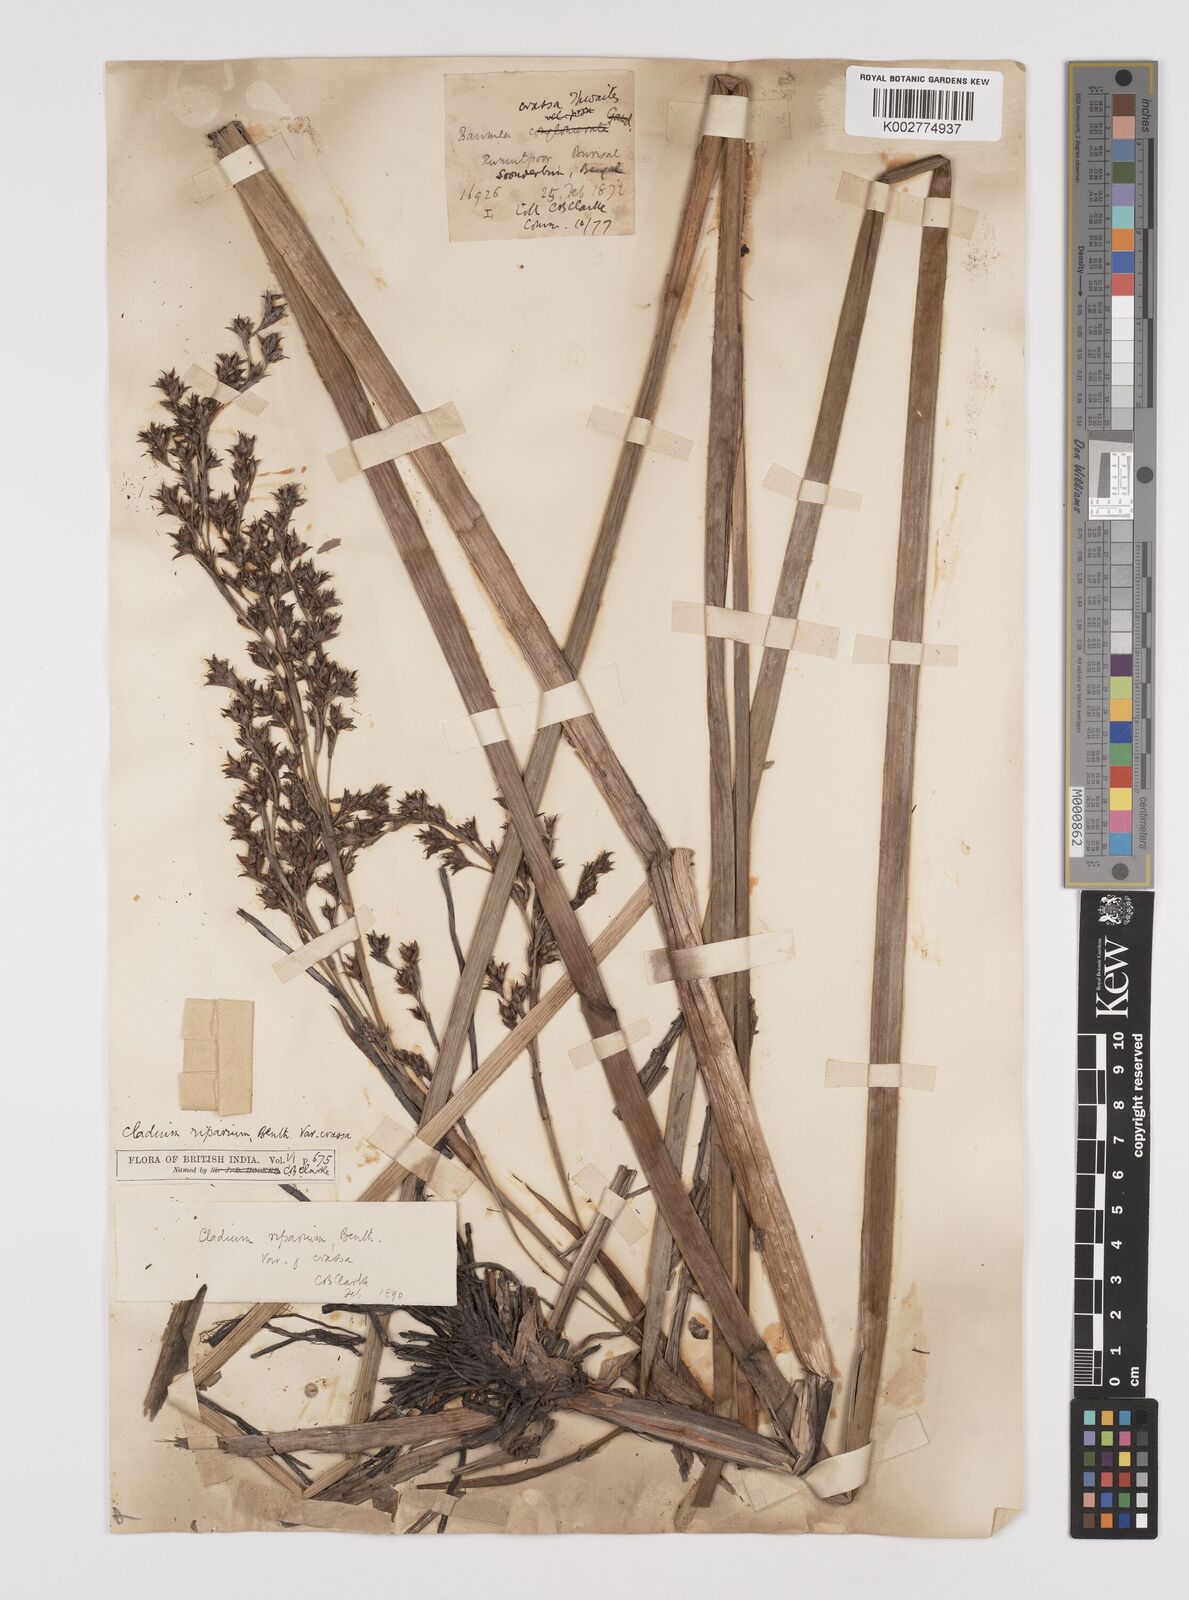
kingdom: Plantae
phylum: Tracheophyta
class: Liliopsida
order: Poales
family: Cyperaceae
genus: Machaerina
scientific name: Machaerina rubiginosa
